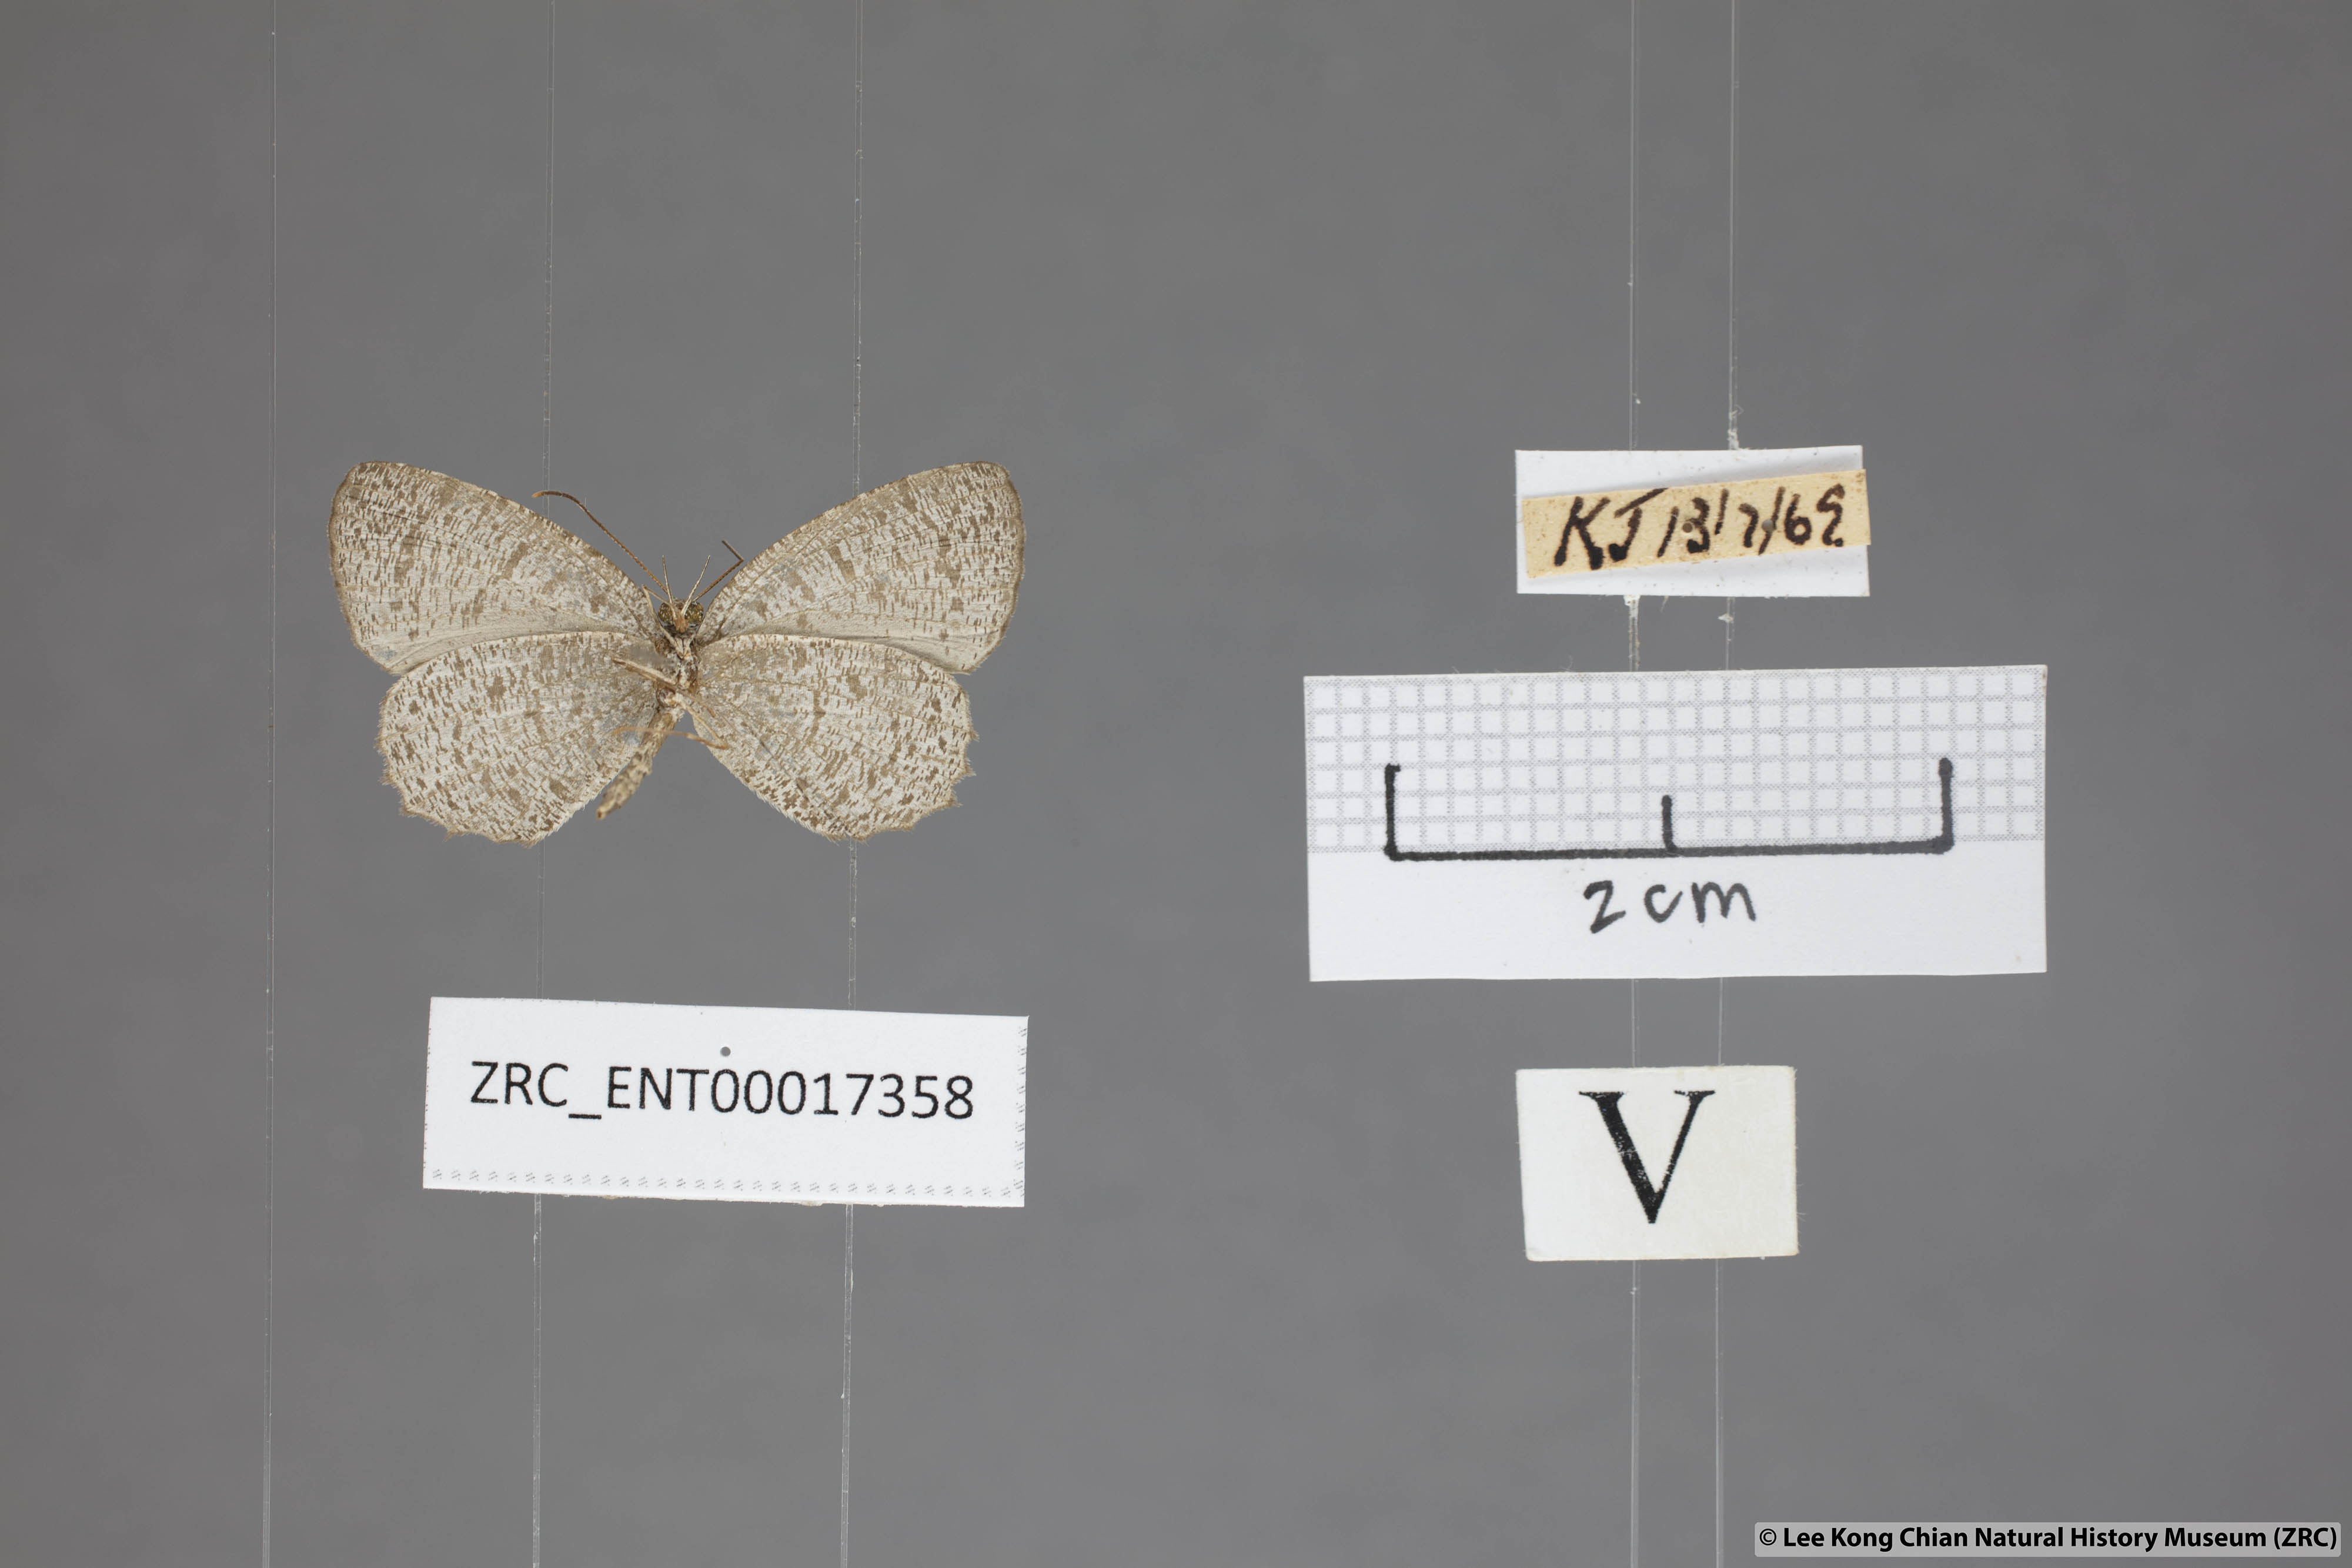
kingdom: Animalia
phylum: Arthropoda
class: Insecta
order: Lepidoptera
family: Lycaenidae
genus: Allotinus
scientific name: Allotinus unicolor
